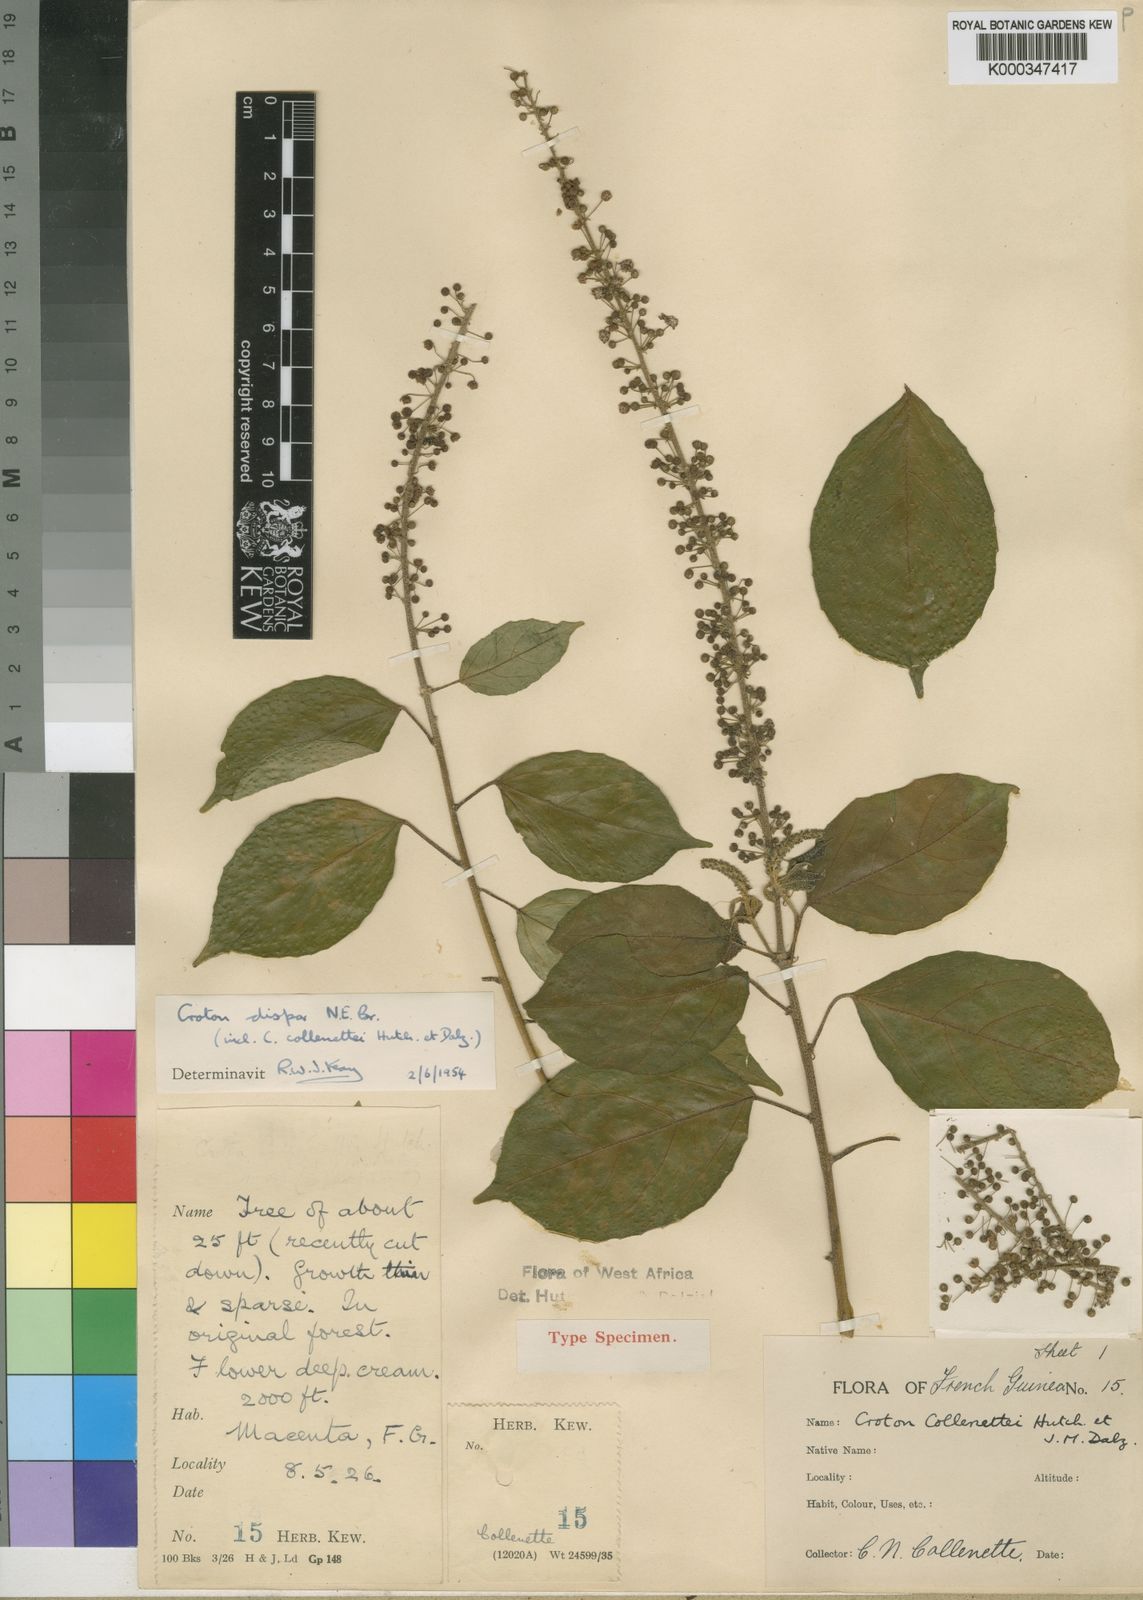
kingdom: Plantae
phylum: Tracheophyta
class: Magnoliopsida
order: Malpighiales
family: Euphorbiaceae
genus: Croton
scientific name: Croton dispar
